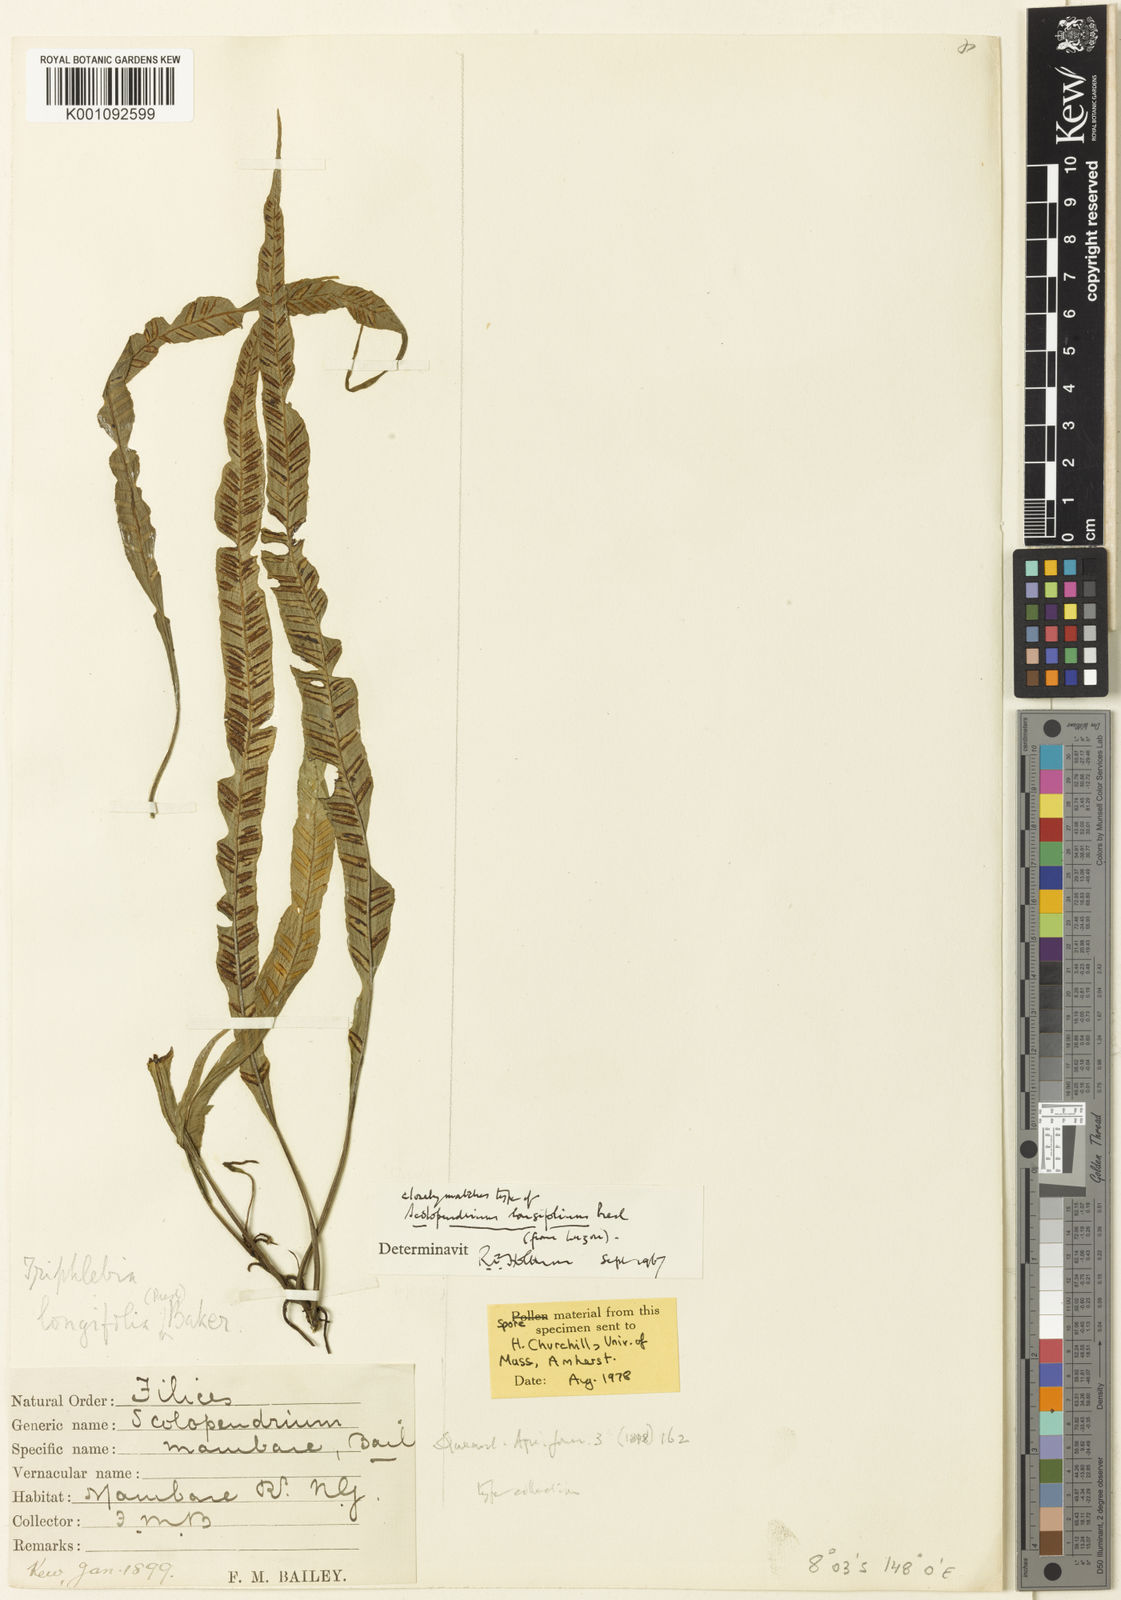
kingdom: Plantae
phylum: Tracheophyta
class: Polypodiopsida
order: Polypodiales
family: Aspleniaceae
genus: Asplenium
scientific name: Asplenium haenkei
